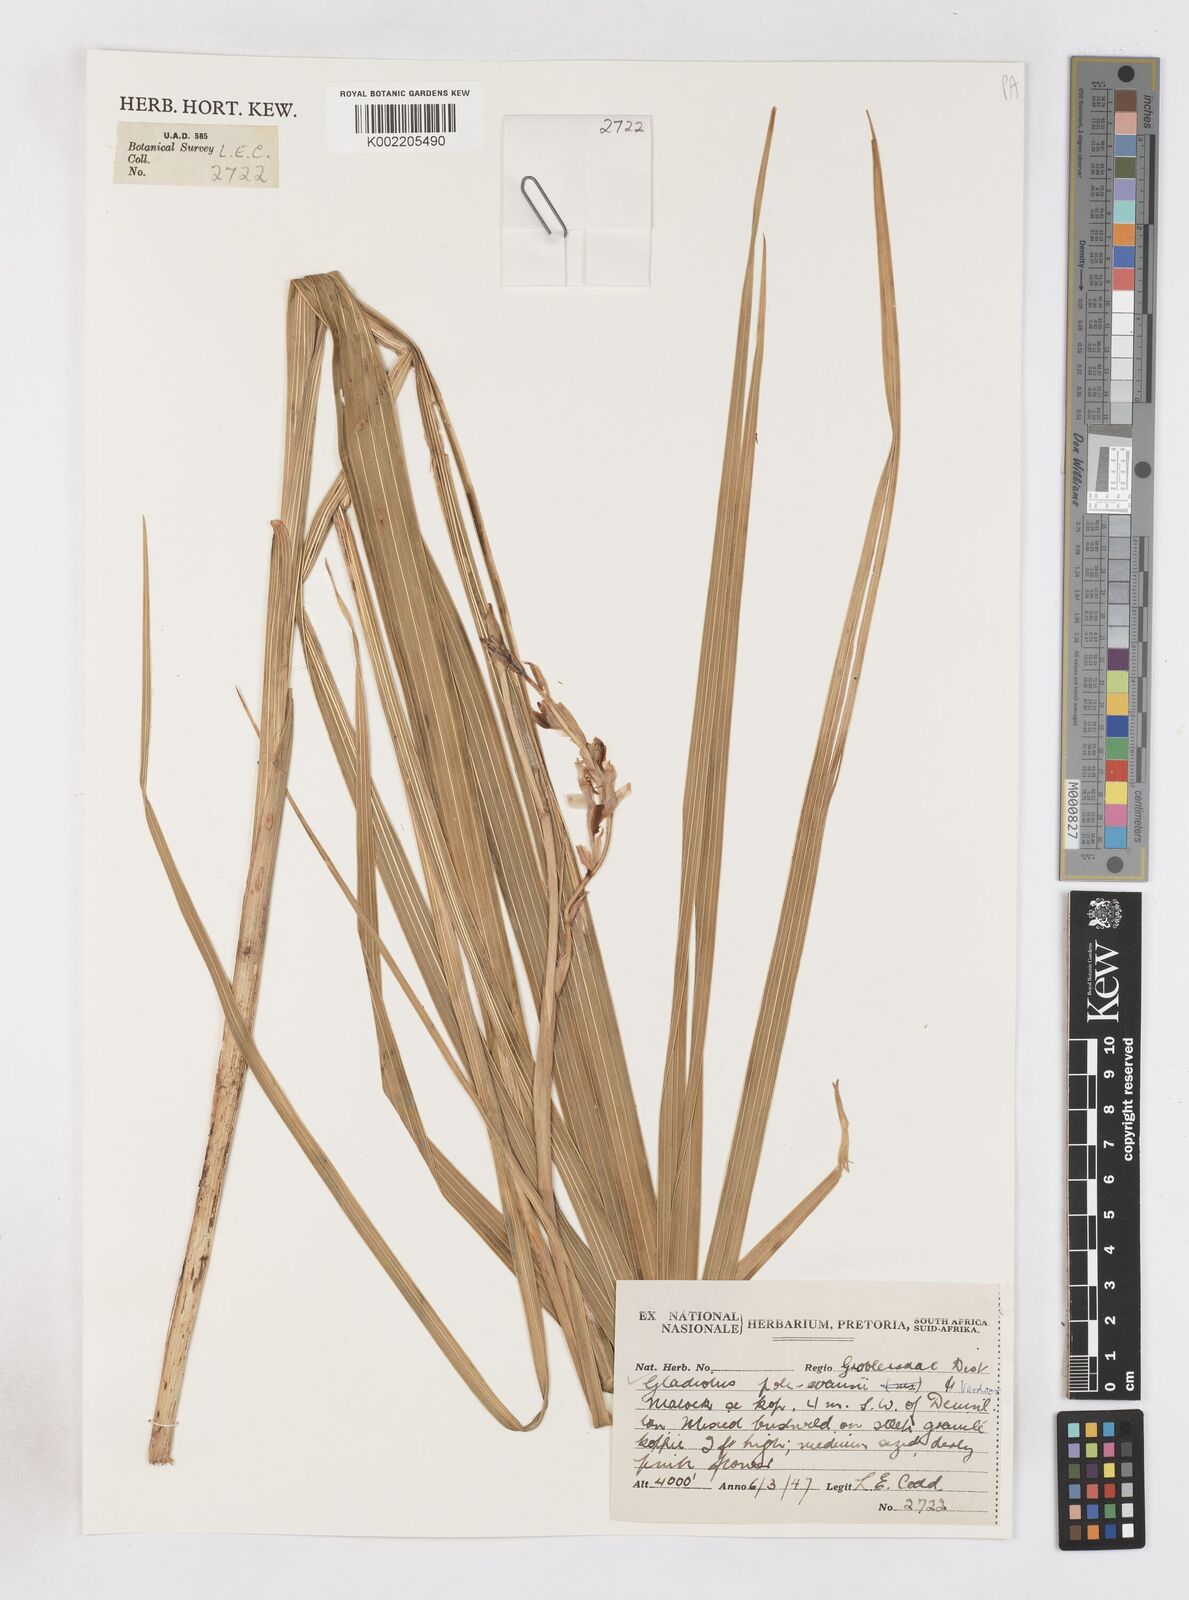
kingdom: Plantae
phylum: Tracheophyta
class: Liliopsida
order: Asparagales
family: Iridaceae
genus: Gladiolus
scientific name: Gladiolus pole-evansii
